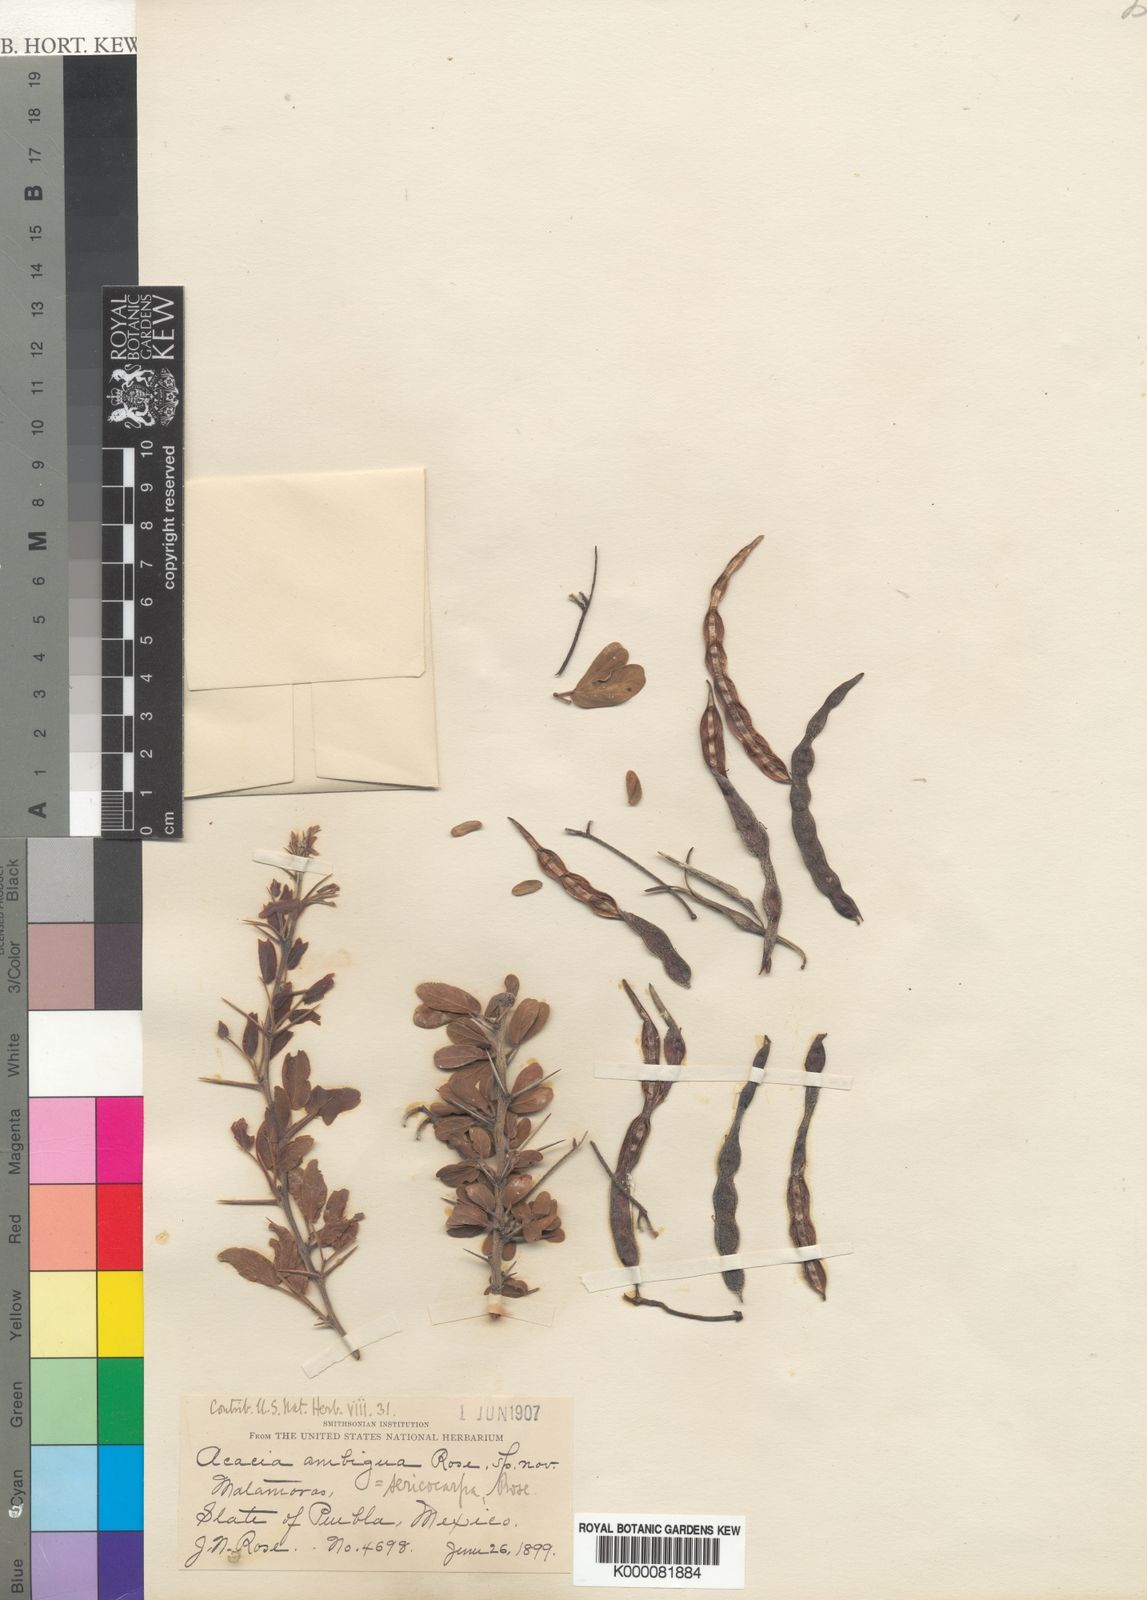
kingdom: Plantae
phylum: Tracheophyta
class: Magnoliopsida
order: Fabales
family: Fabaceae
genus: Vachellia
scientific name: Vachellia bilimekii
